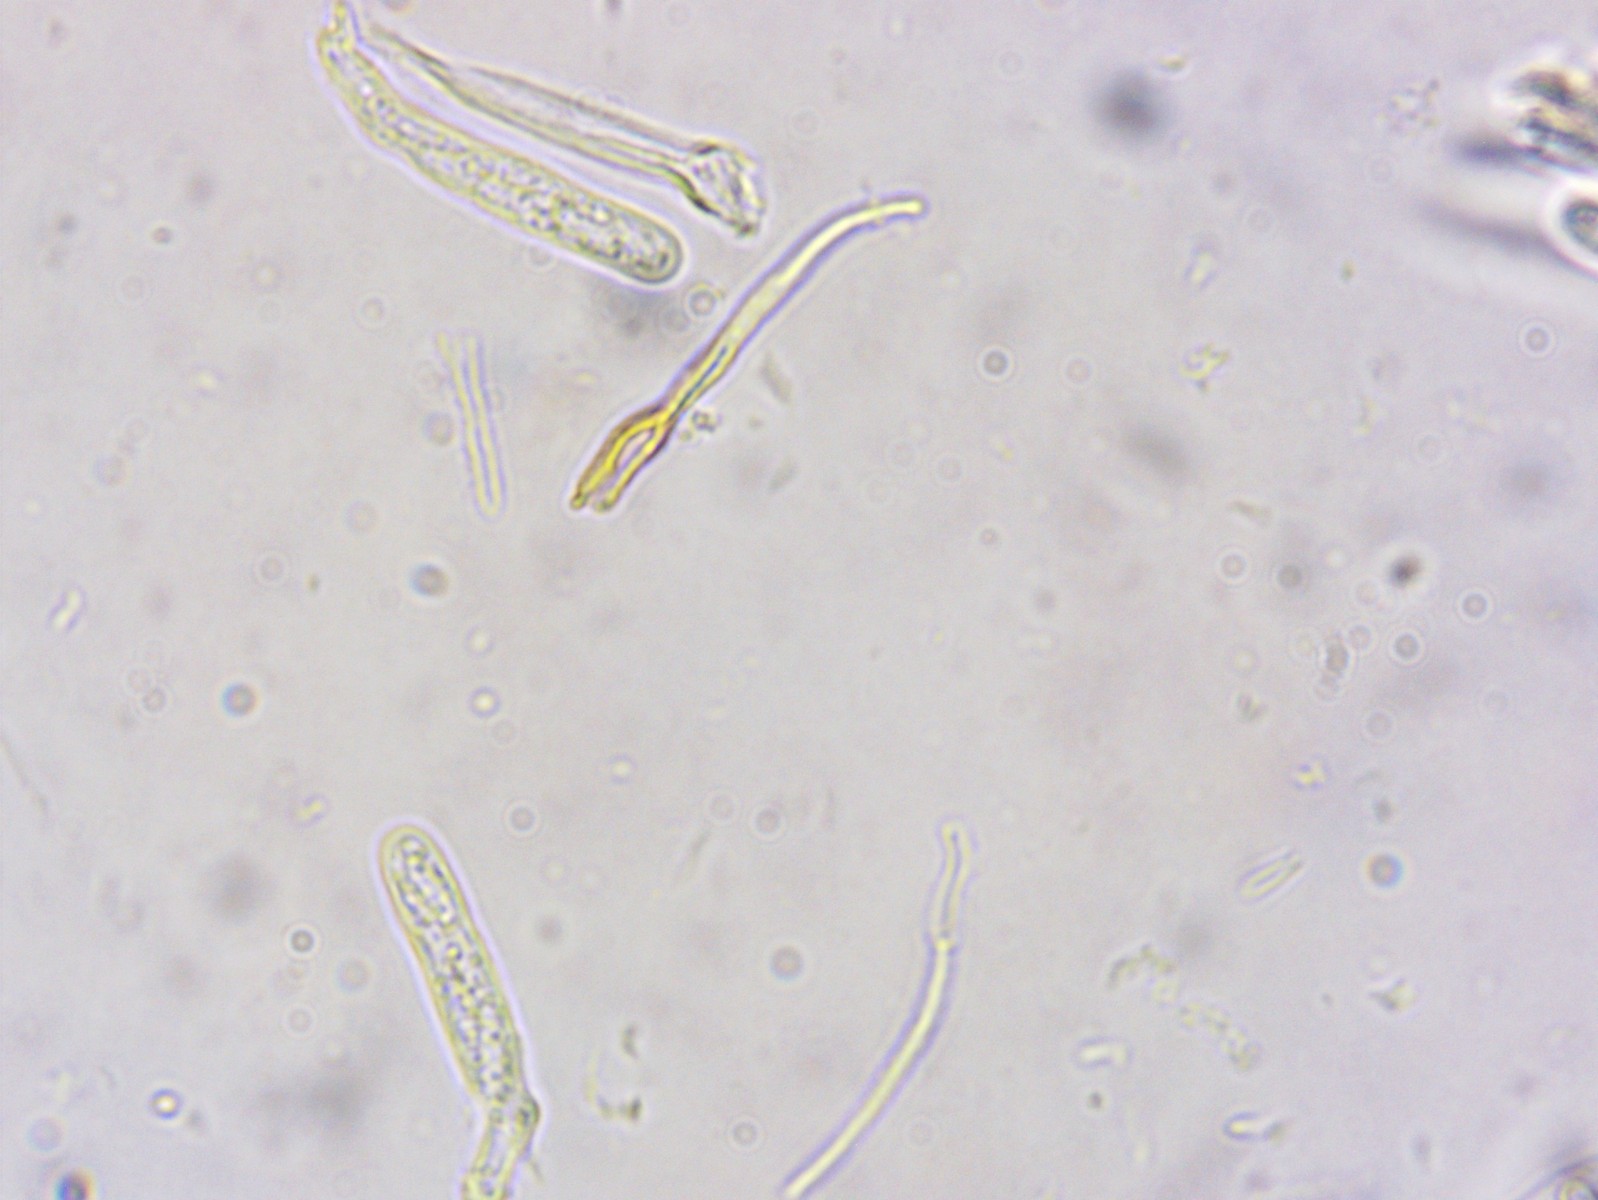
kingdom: Fungi
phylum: Ascomycota
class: Leotiomycetes
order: Helotiales
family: Cordieritidaceae
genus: Unguiculariopsis
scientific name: Unguiculariopsis hamatopilosa
